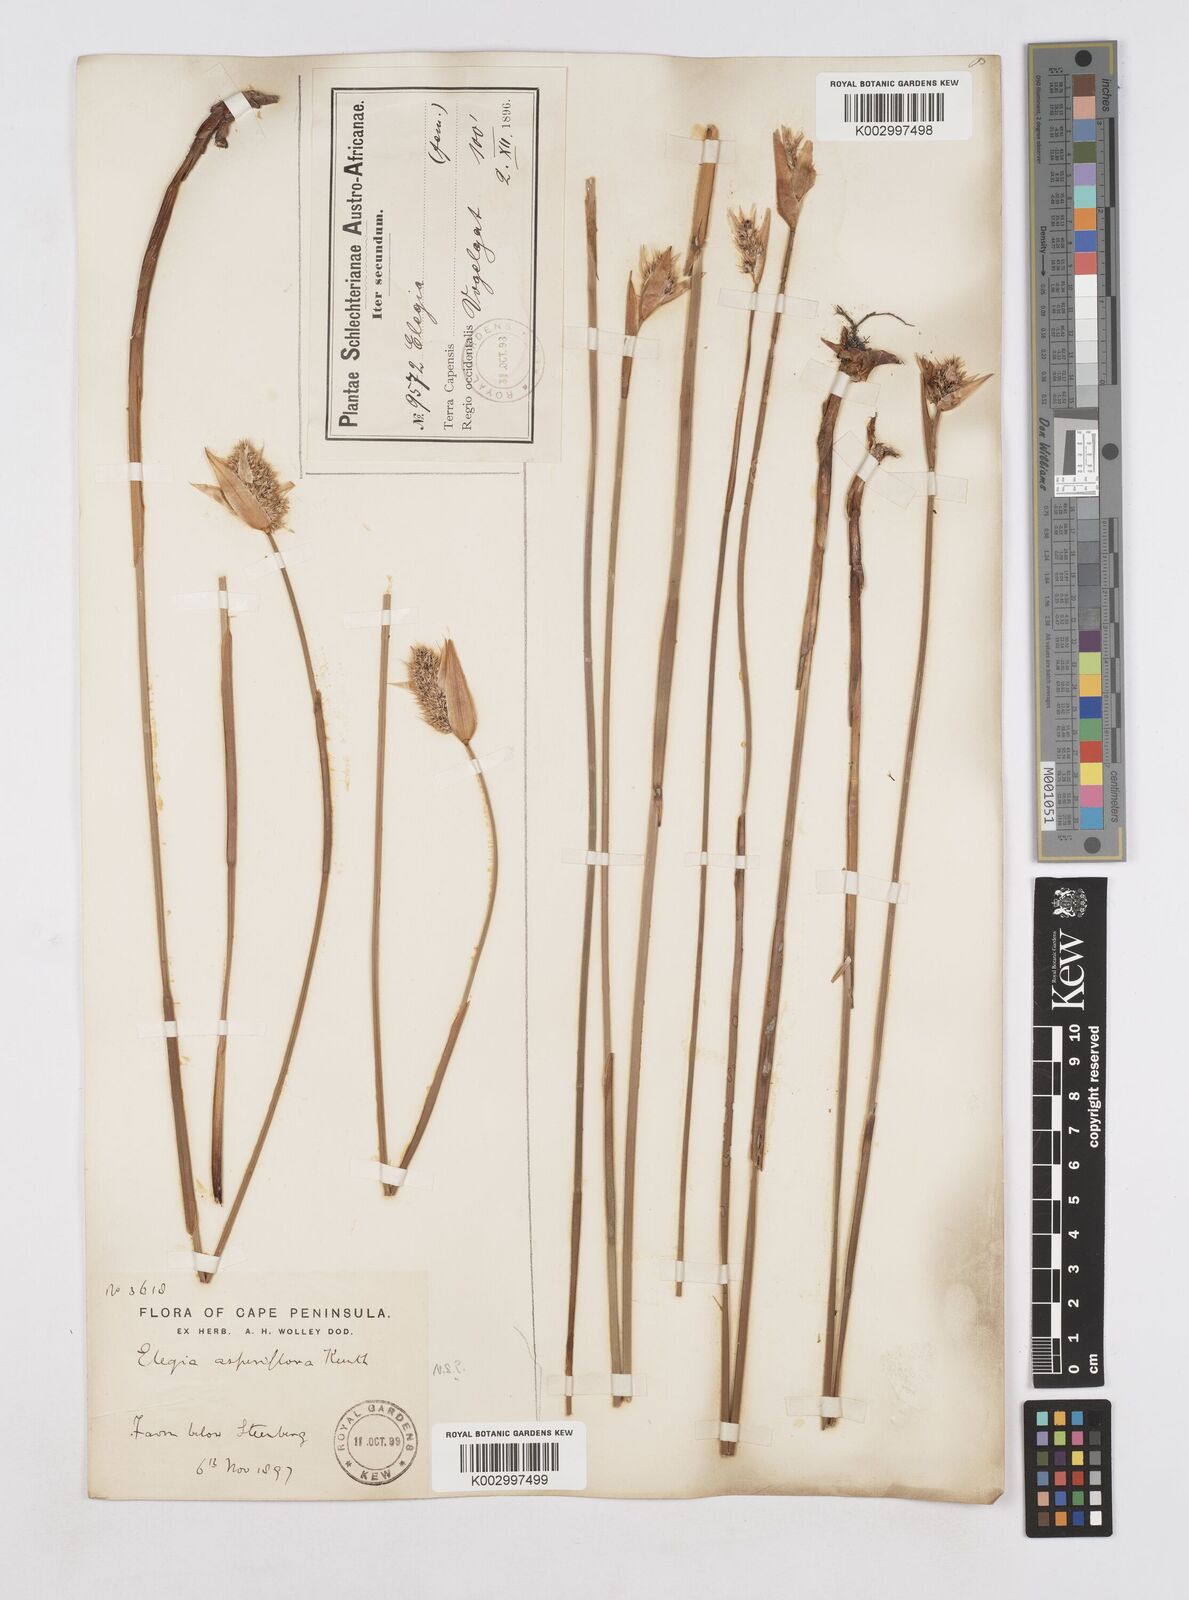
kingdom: Plantae
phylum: Tracheophyta
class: Liliopsida
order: Poales
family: Restionaceae
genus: Elegia
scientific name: Elegia asperiflora
